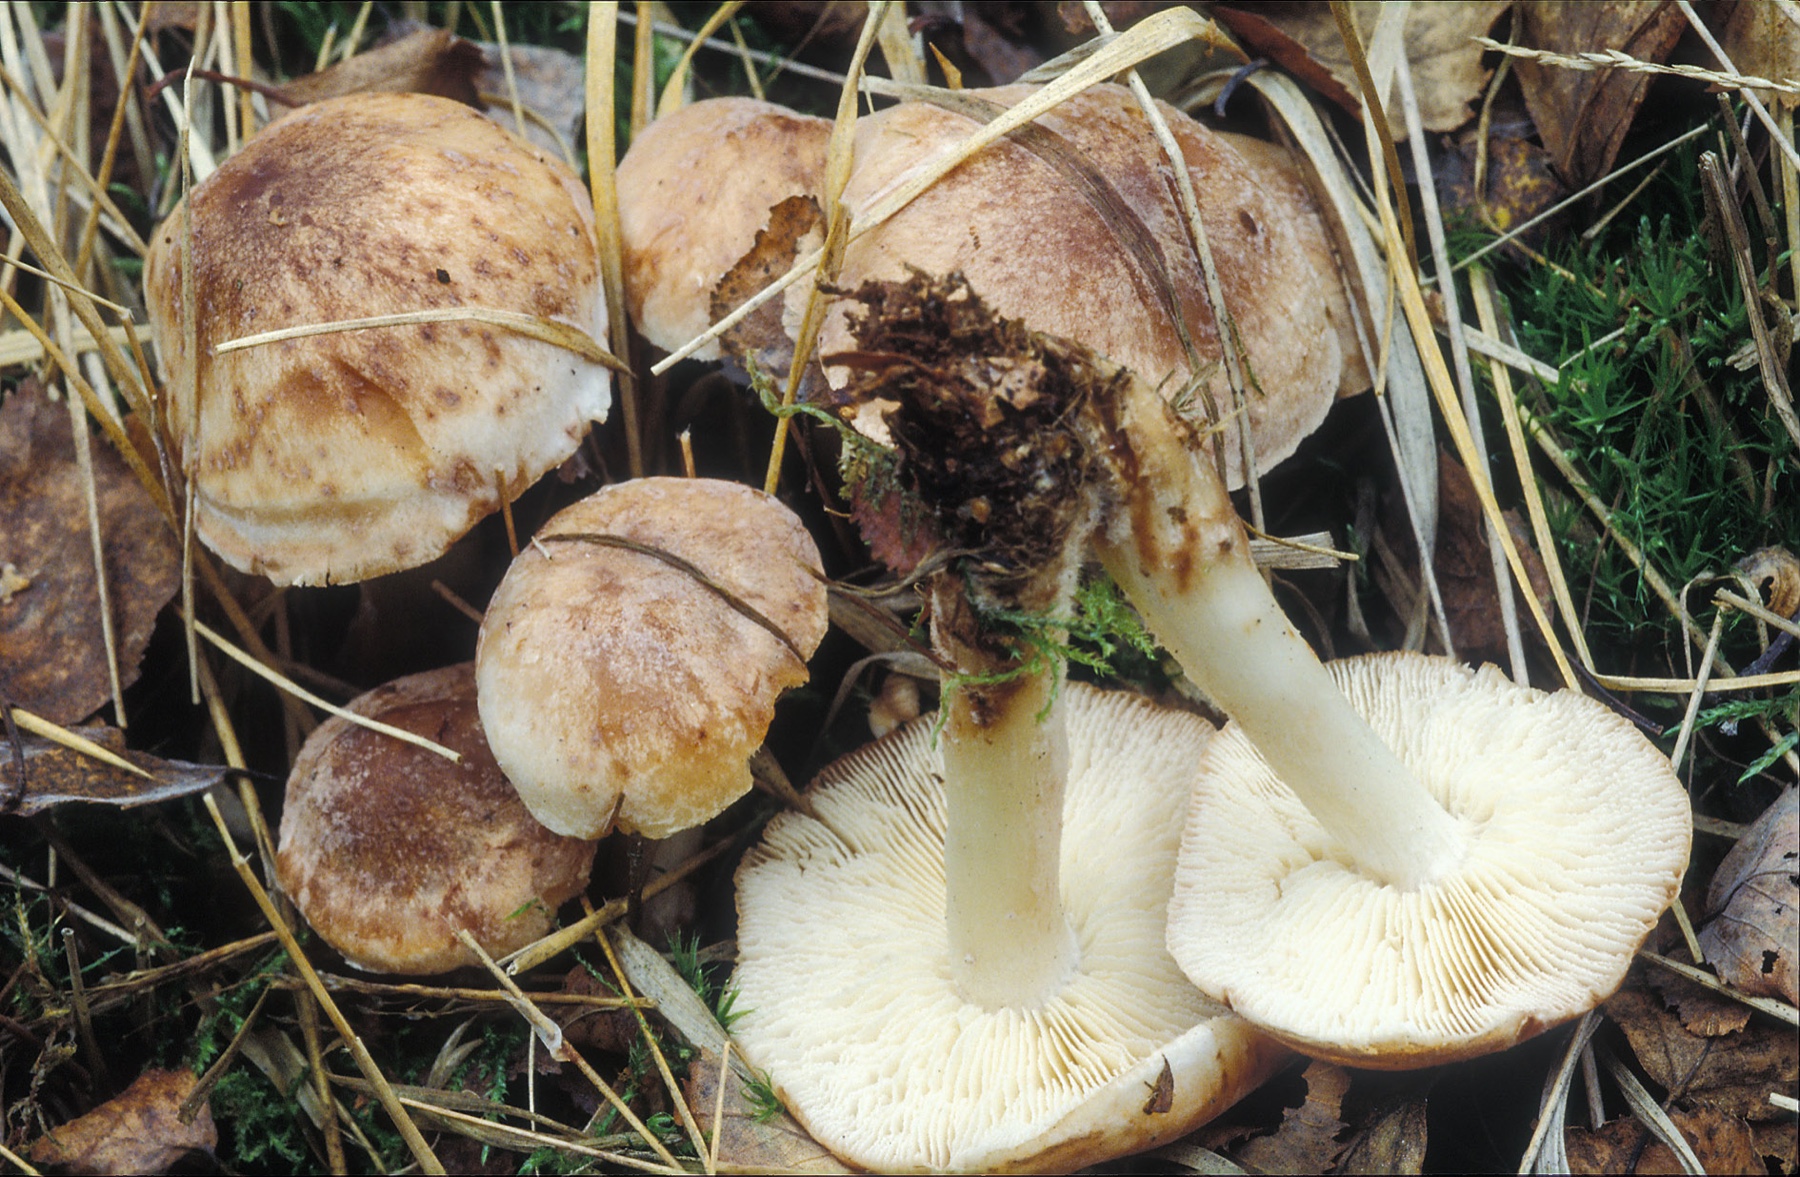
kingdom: Fungi
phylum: Basidiomycota
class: Agaricomycetes
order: Agaricales
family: Omphalotaceae
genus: Rhodocollybia
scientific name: Rhodocollybia fodiens
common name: nordisk fladhat
